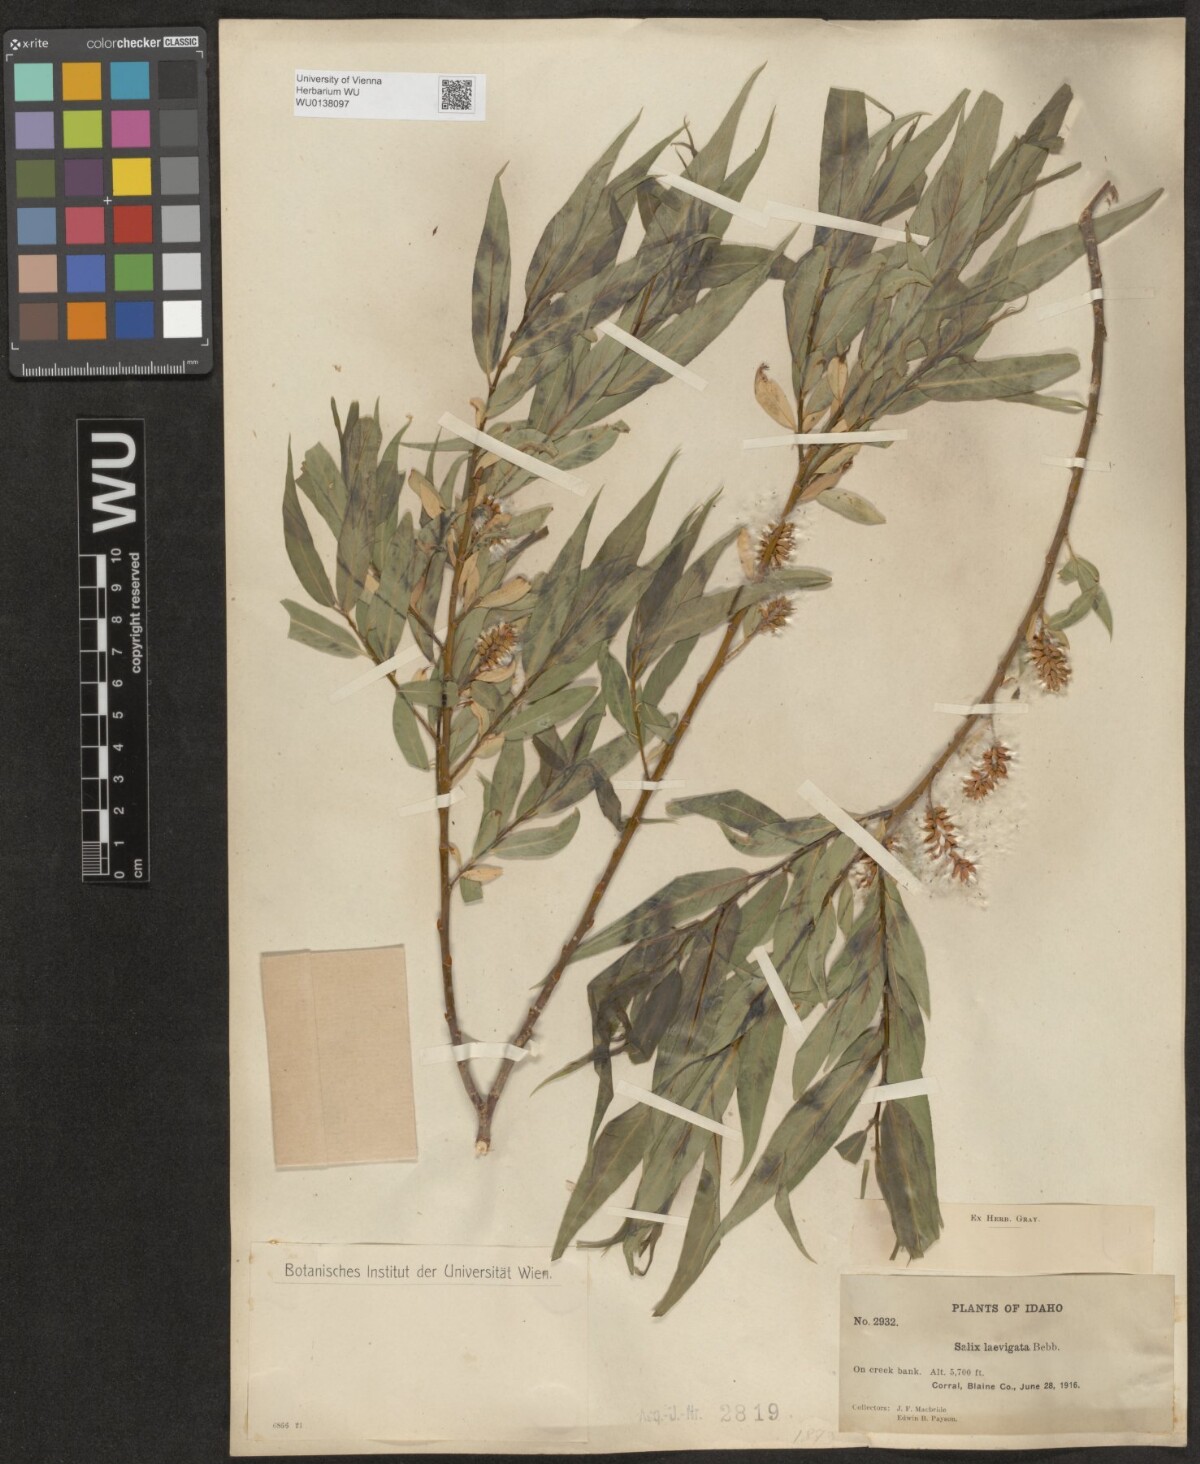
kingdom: Plantae
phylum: Tracheophyta
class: Magnoliopsida
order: Malpighiales
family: Salicaceae
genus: Salix
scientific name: Salix laevigata
